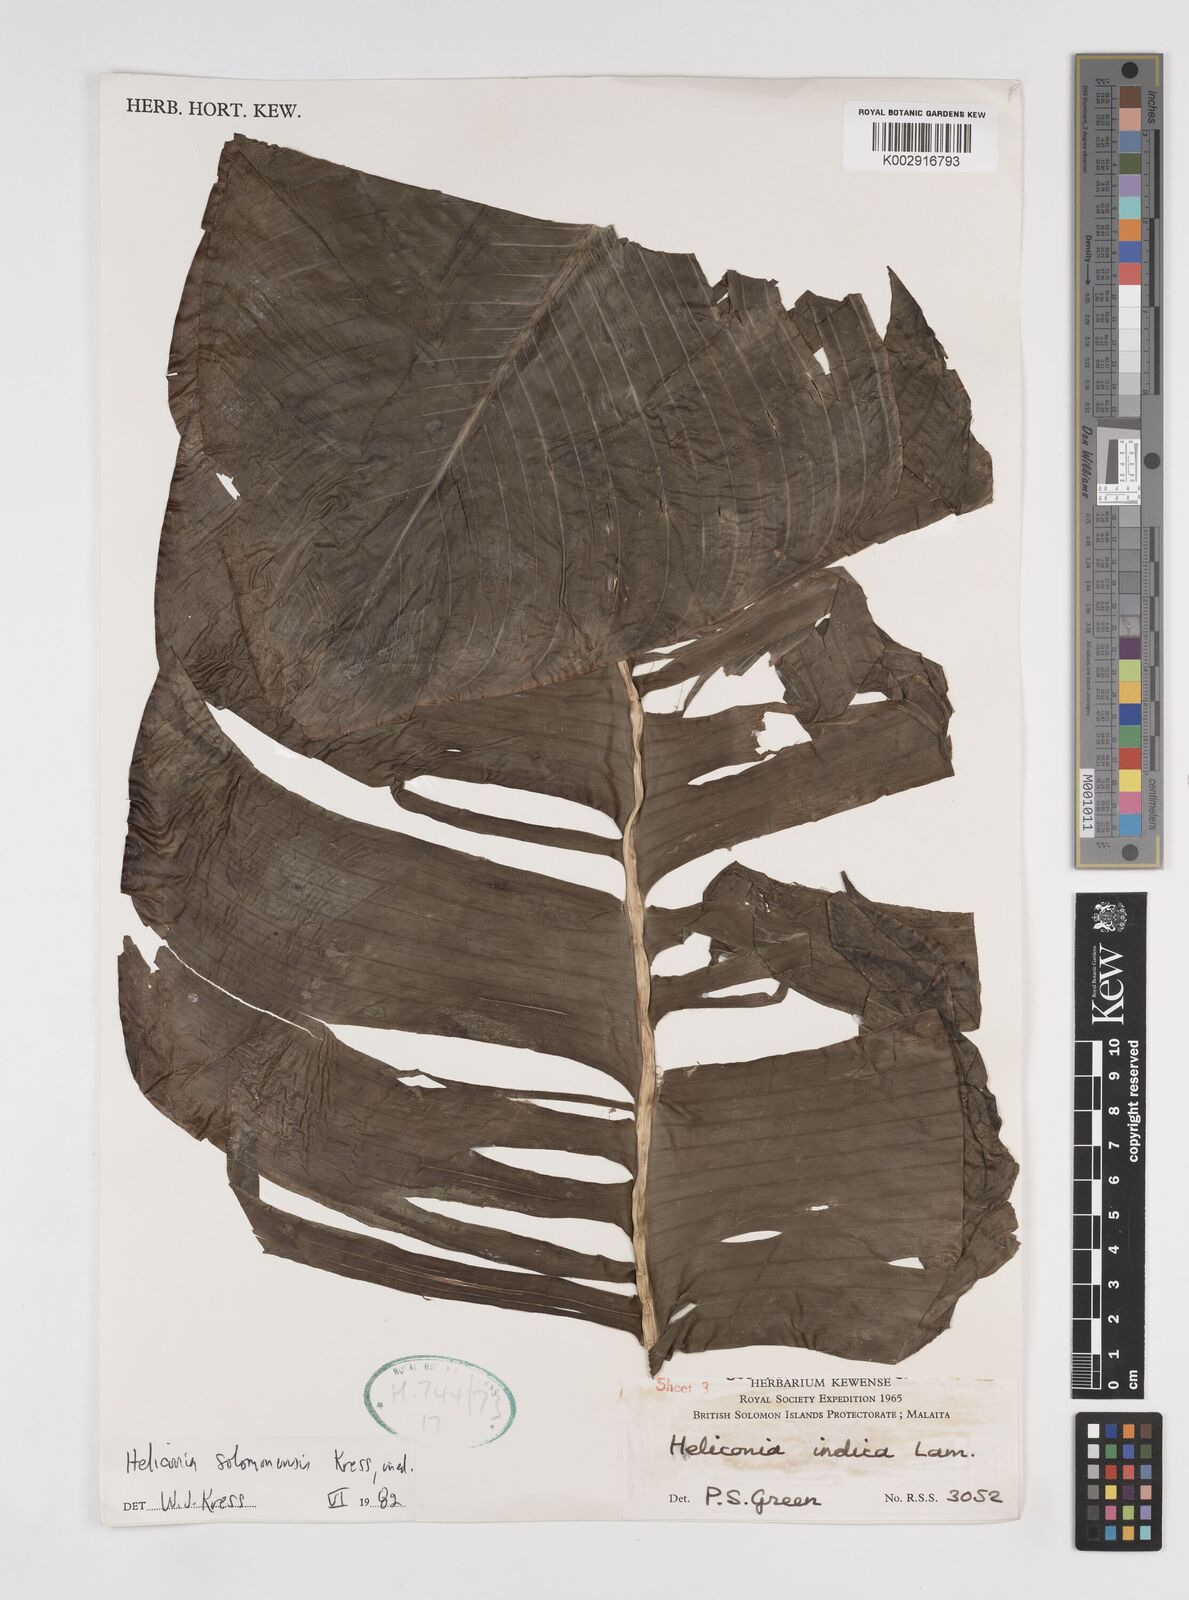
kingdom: Plantae
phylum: Tracheophyta
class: Liliopsida
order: Zingiberales
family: Heliconiaceae
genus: Heliconia
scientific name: Heliconia solomonensis
